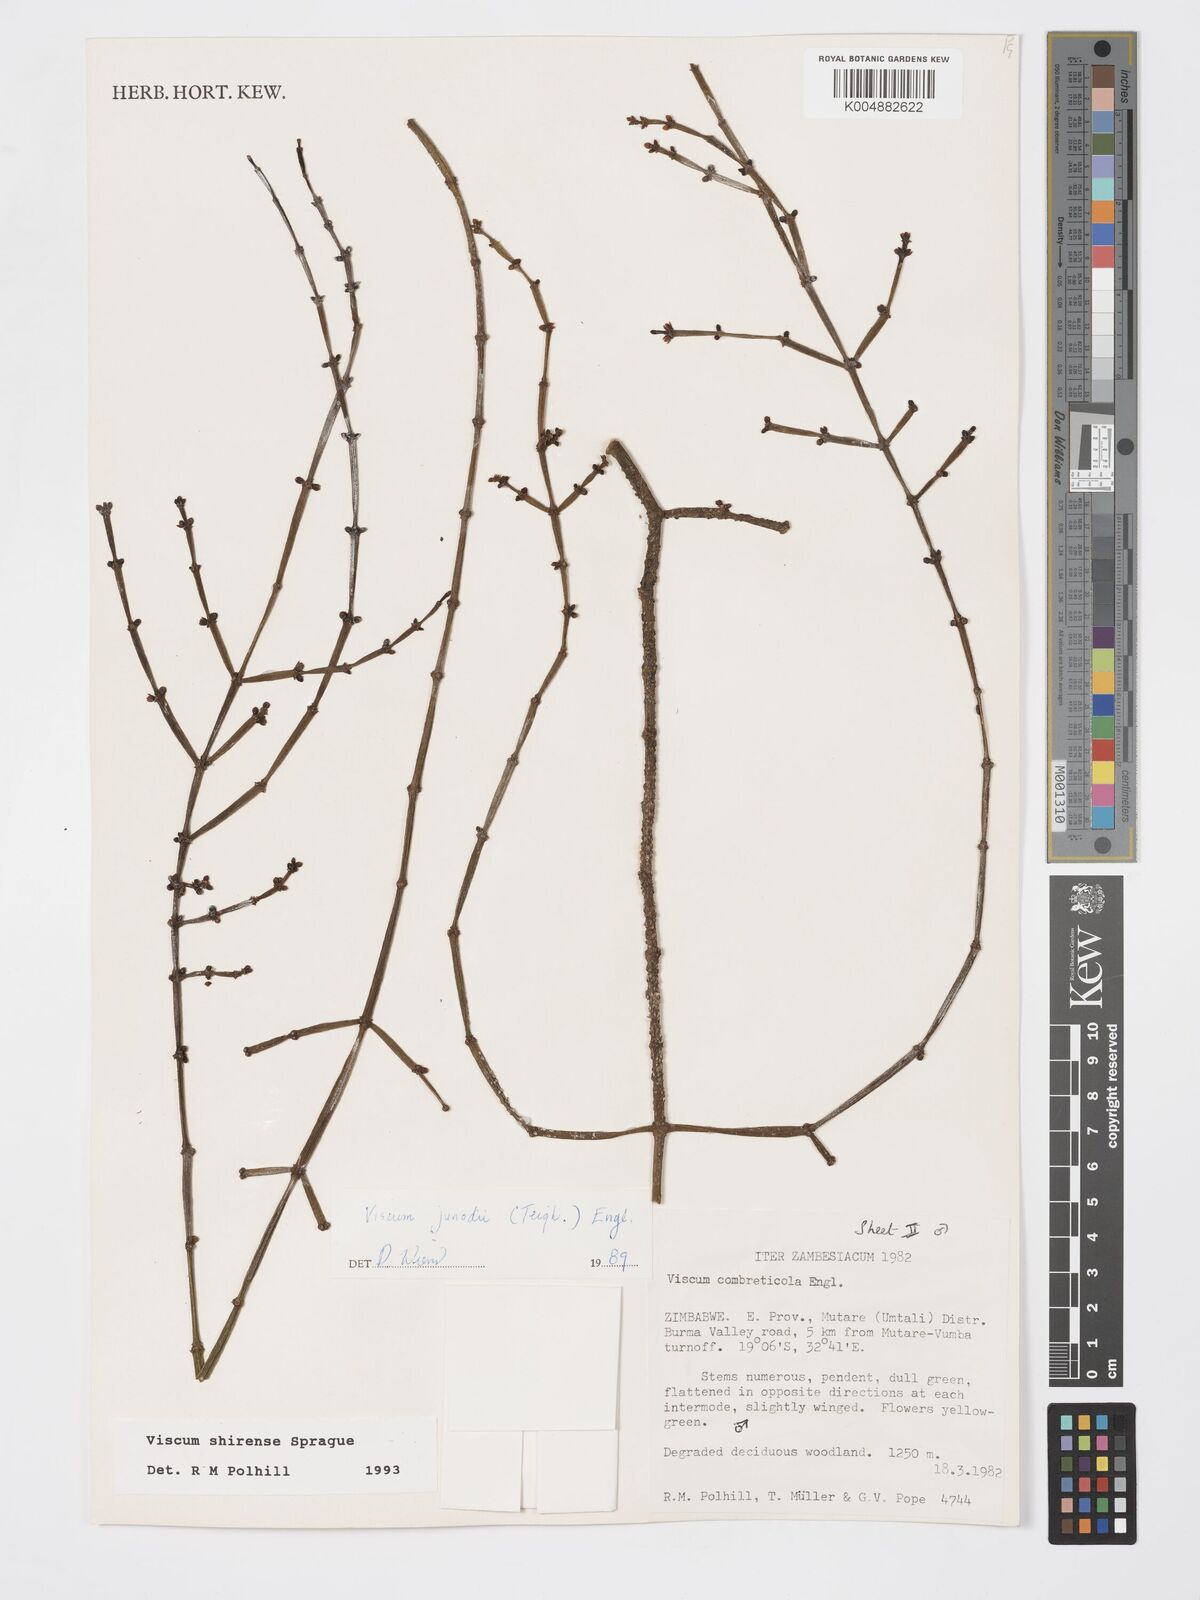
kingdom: Plantae
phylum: Tracheophyta
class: Magnoliopsida
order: Santalales
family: Viscaceae
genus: Viscum
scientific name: Viscum junodii
